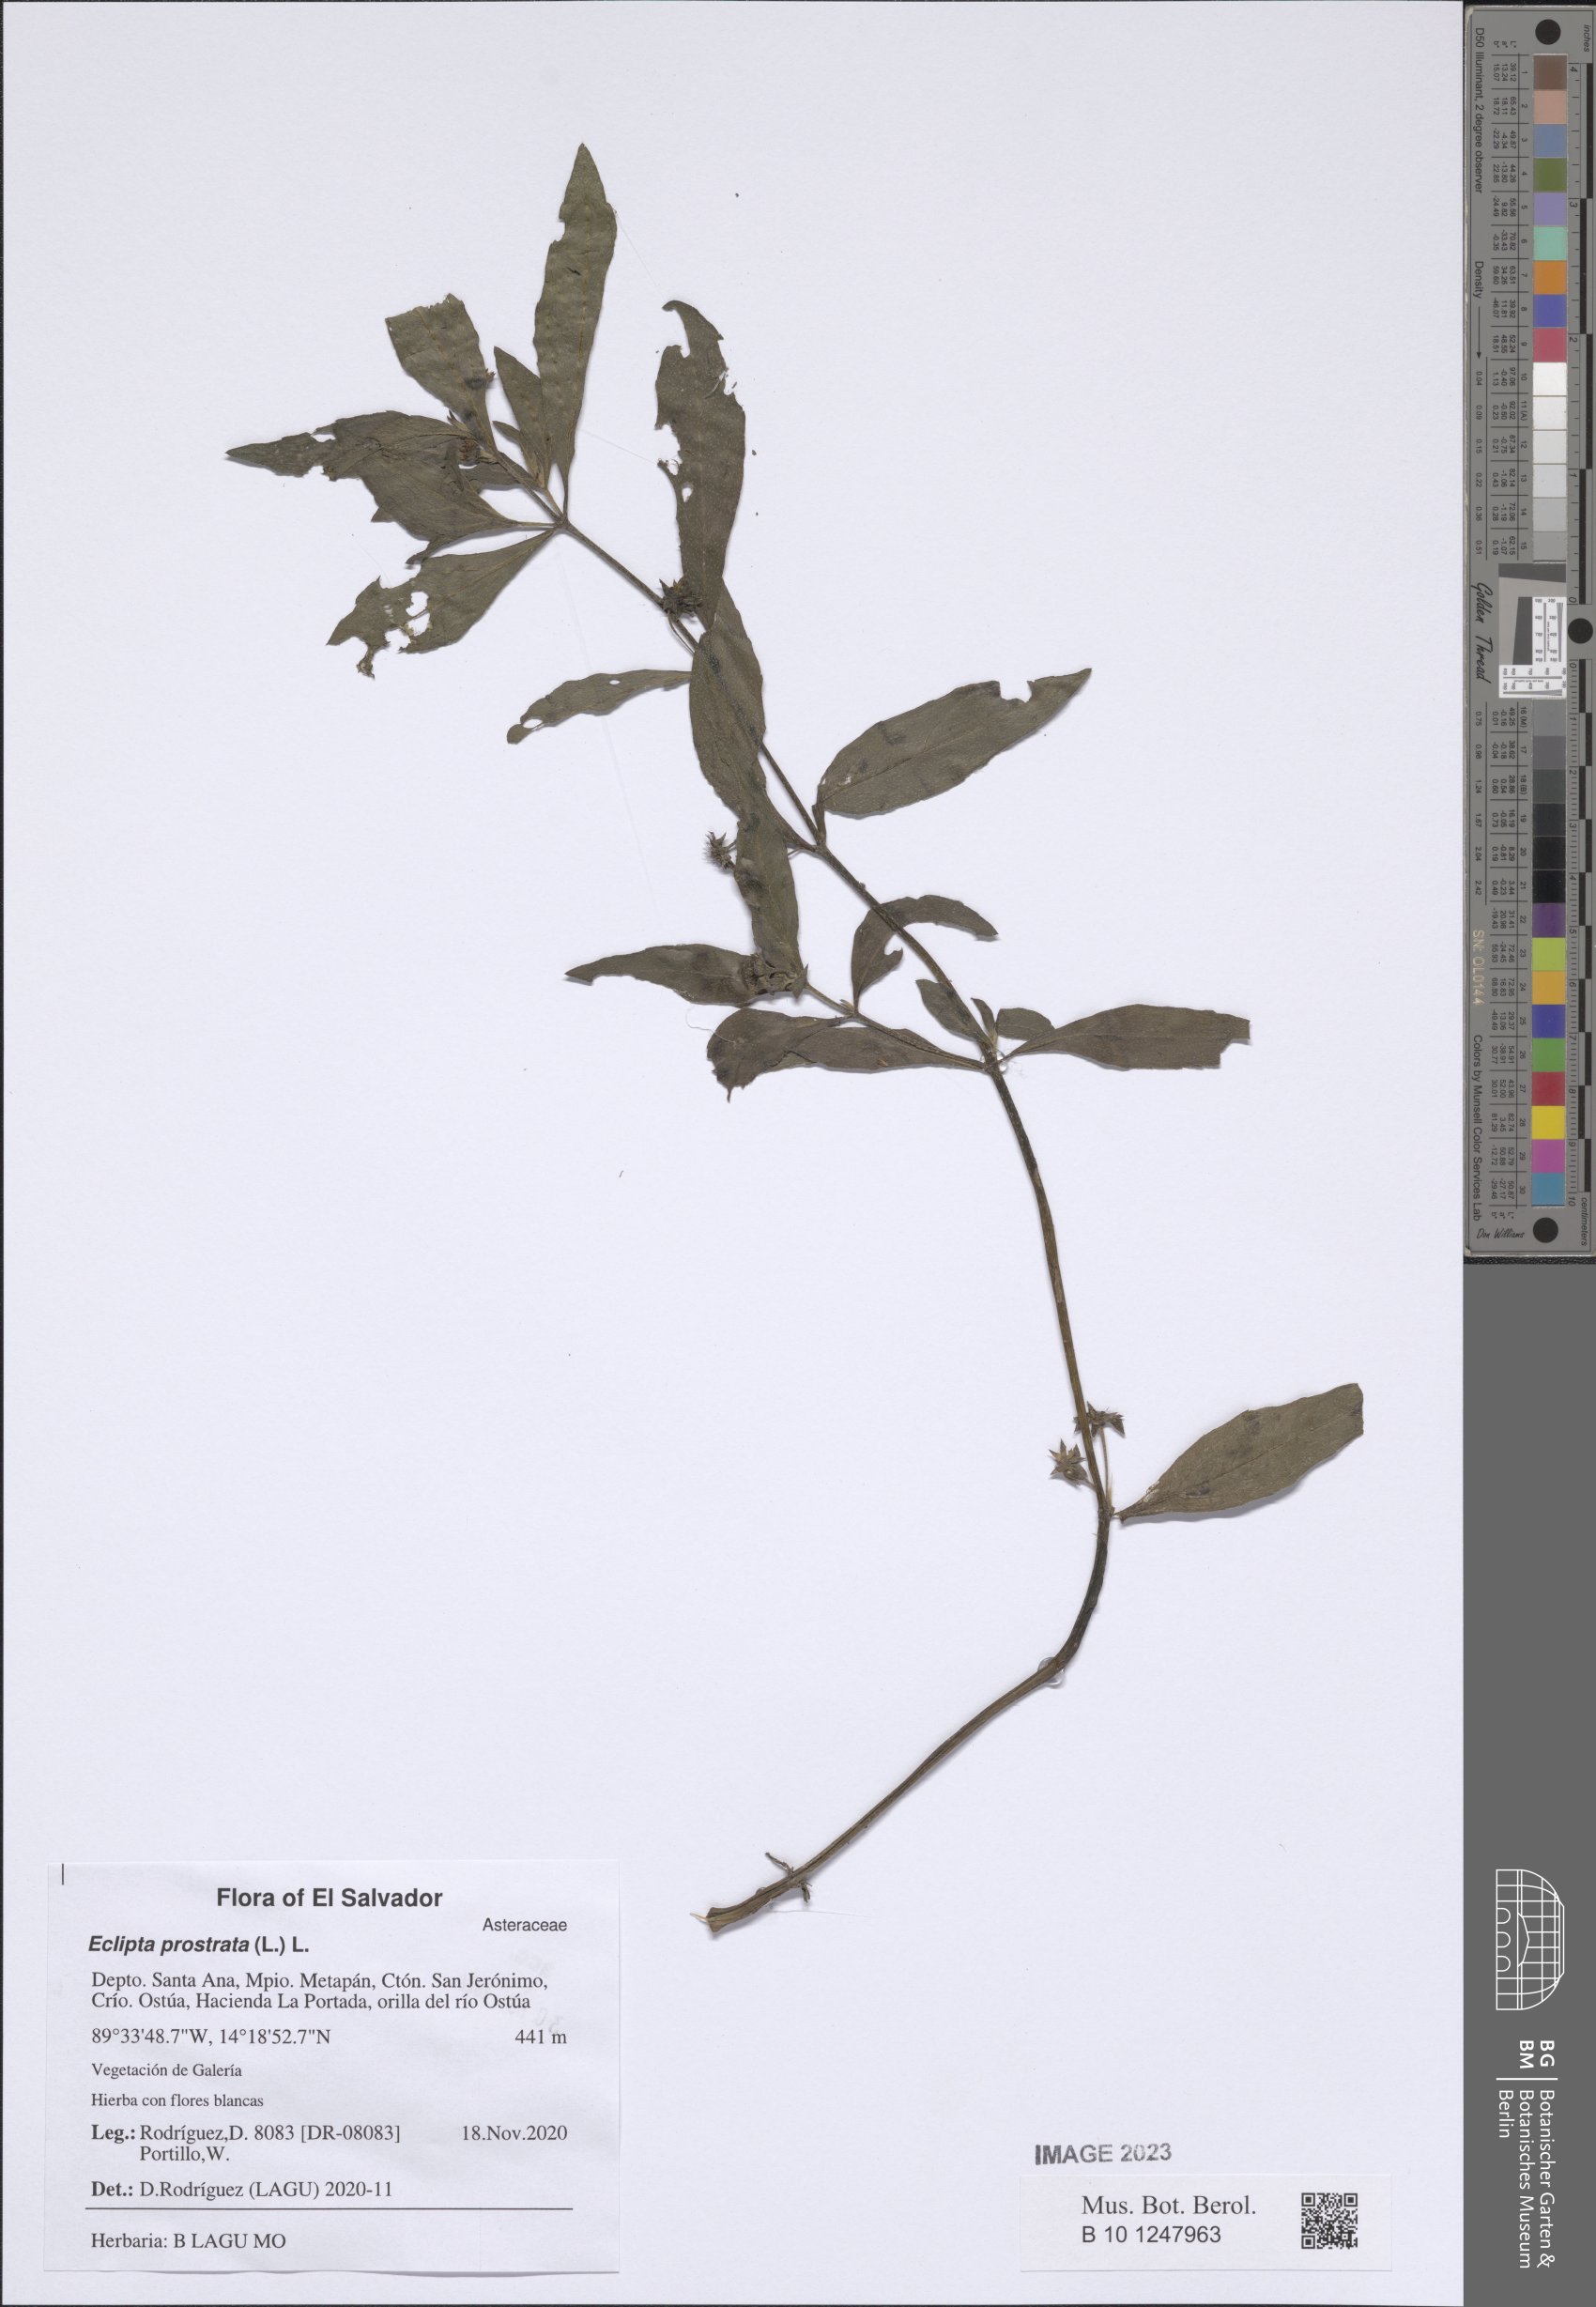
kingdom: Plantae
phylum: Tracheophyta
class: Magnoliopsida
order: Asterales
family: Asteraceae
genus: Eclipta
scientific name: Eclipta prostrata
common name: False daisy
